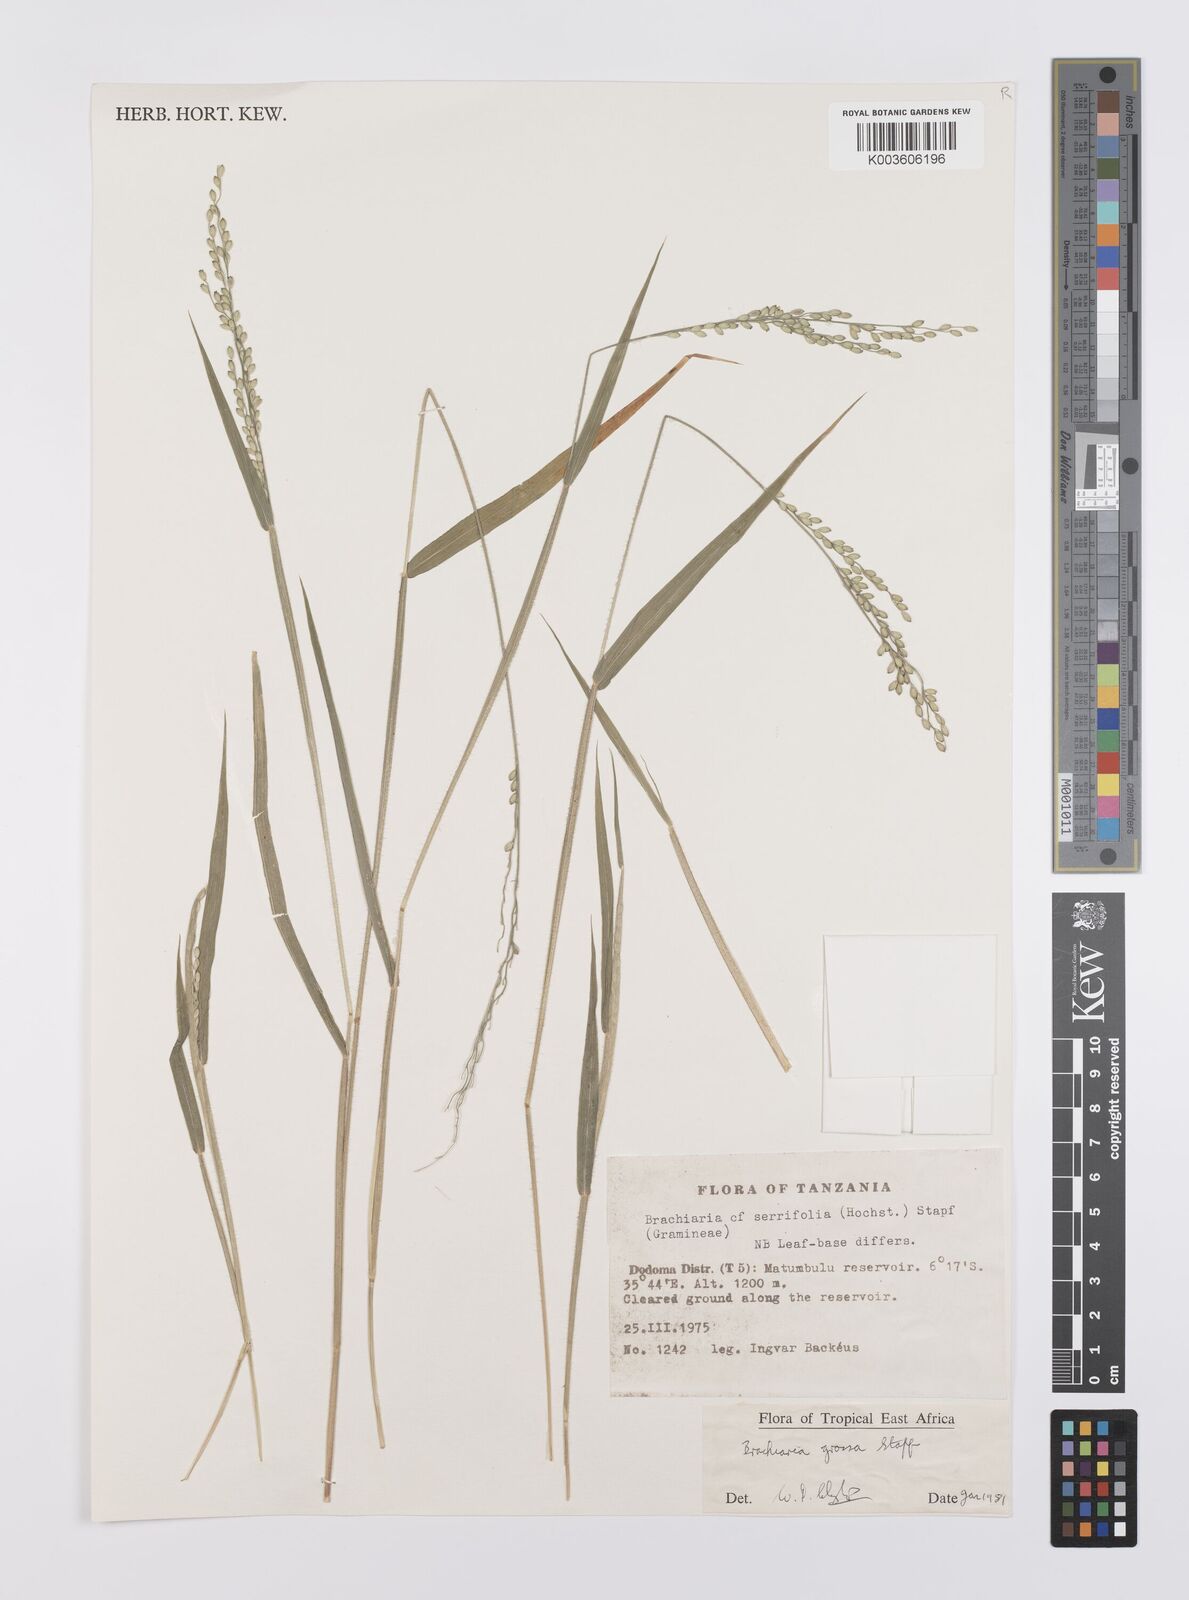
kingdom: Plantae
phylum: Tracheophyta
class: Liliopsida
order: Poales
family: Poaceae
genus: Urochloa
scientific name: Urochloa Brachiaria grossa
